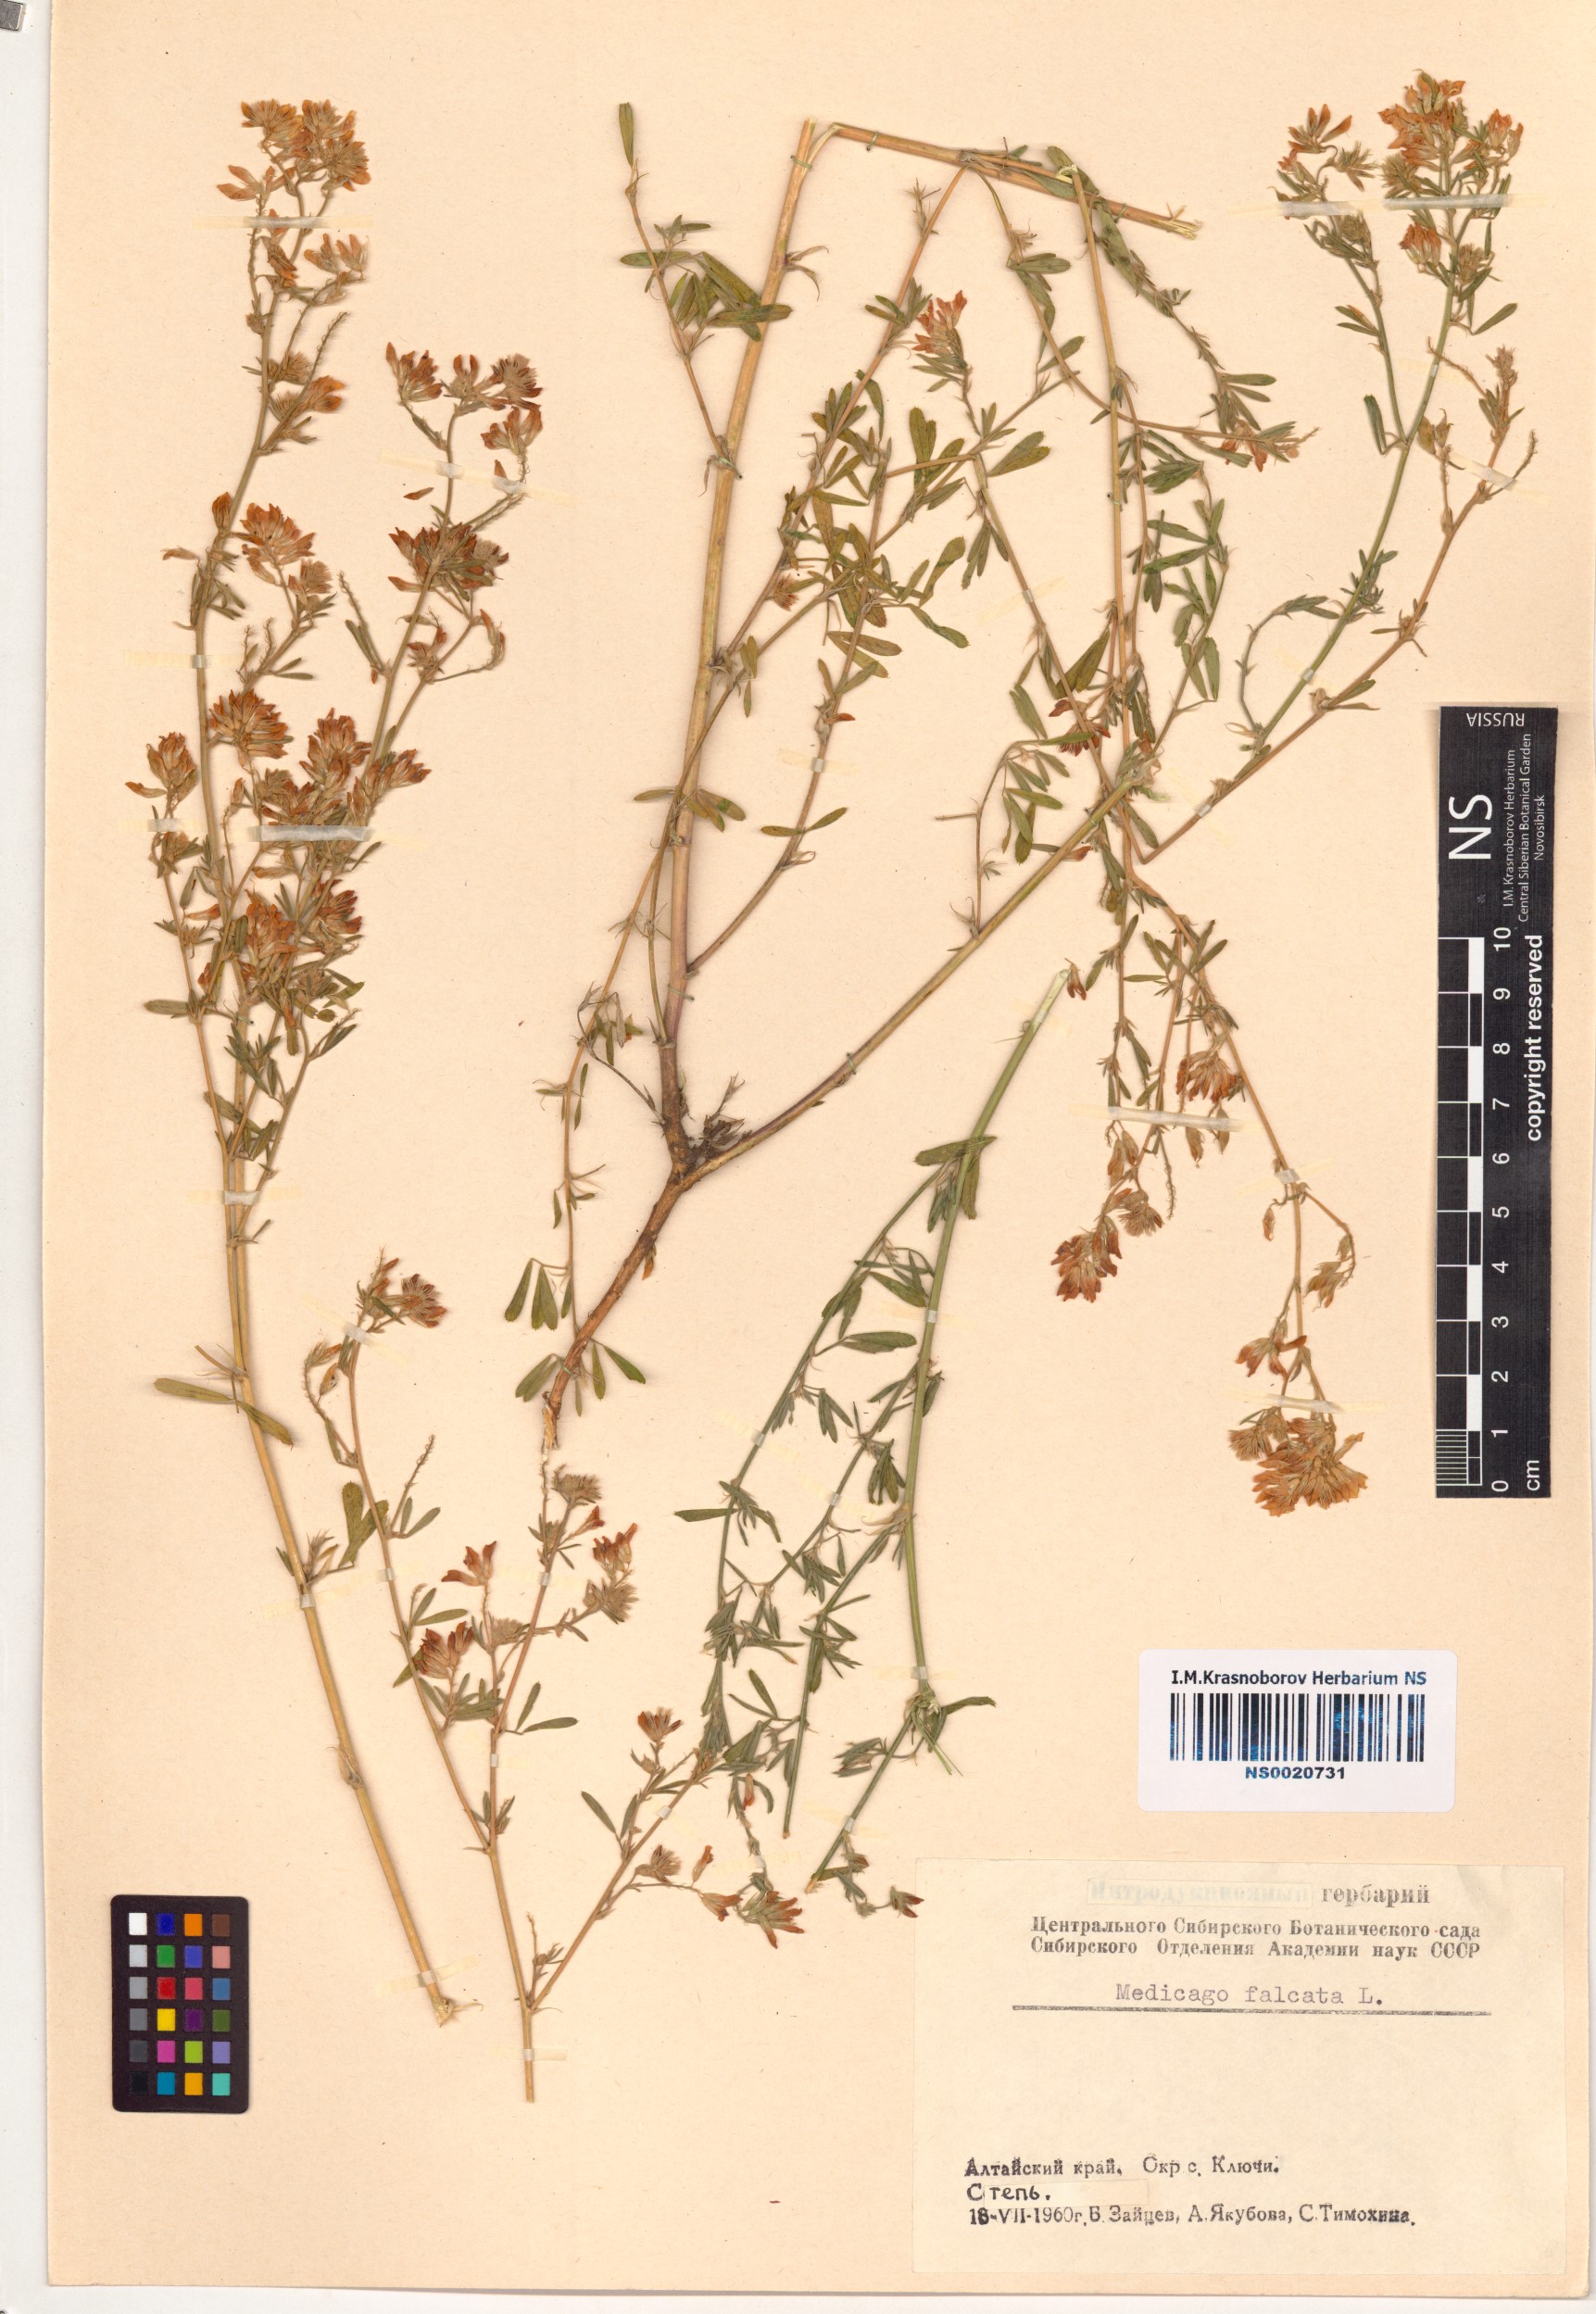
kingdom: Plantae
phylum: Tracheophyta
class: Magnoliopsida
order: Fabales
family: Fabaceae
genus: Medicago
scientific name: Medicago falcata
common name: Sickle medick
